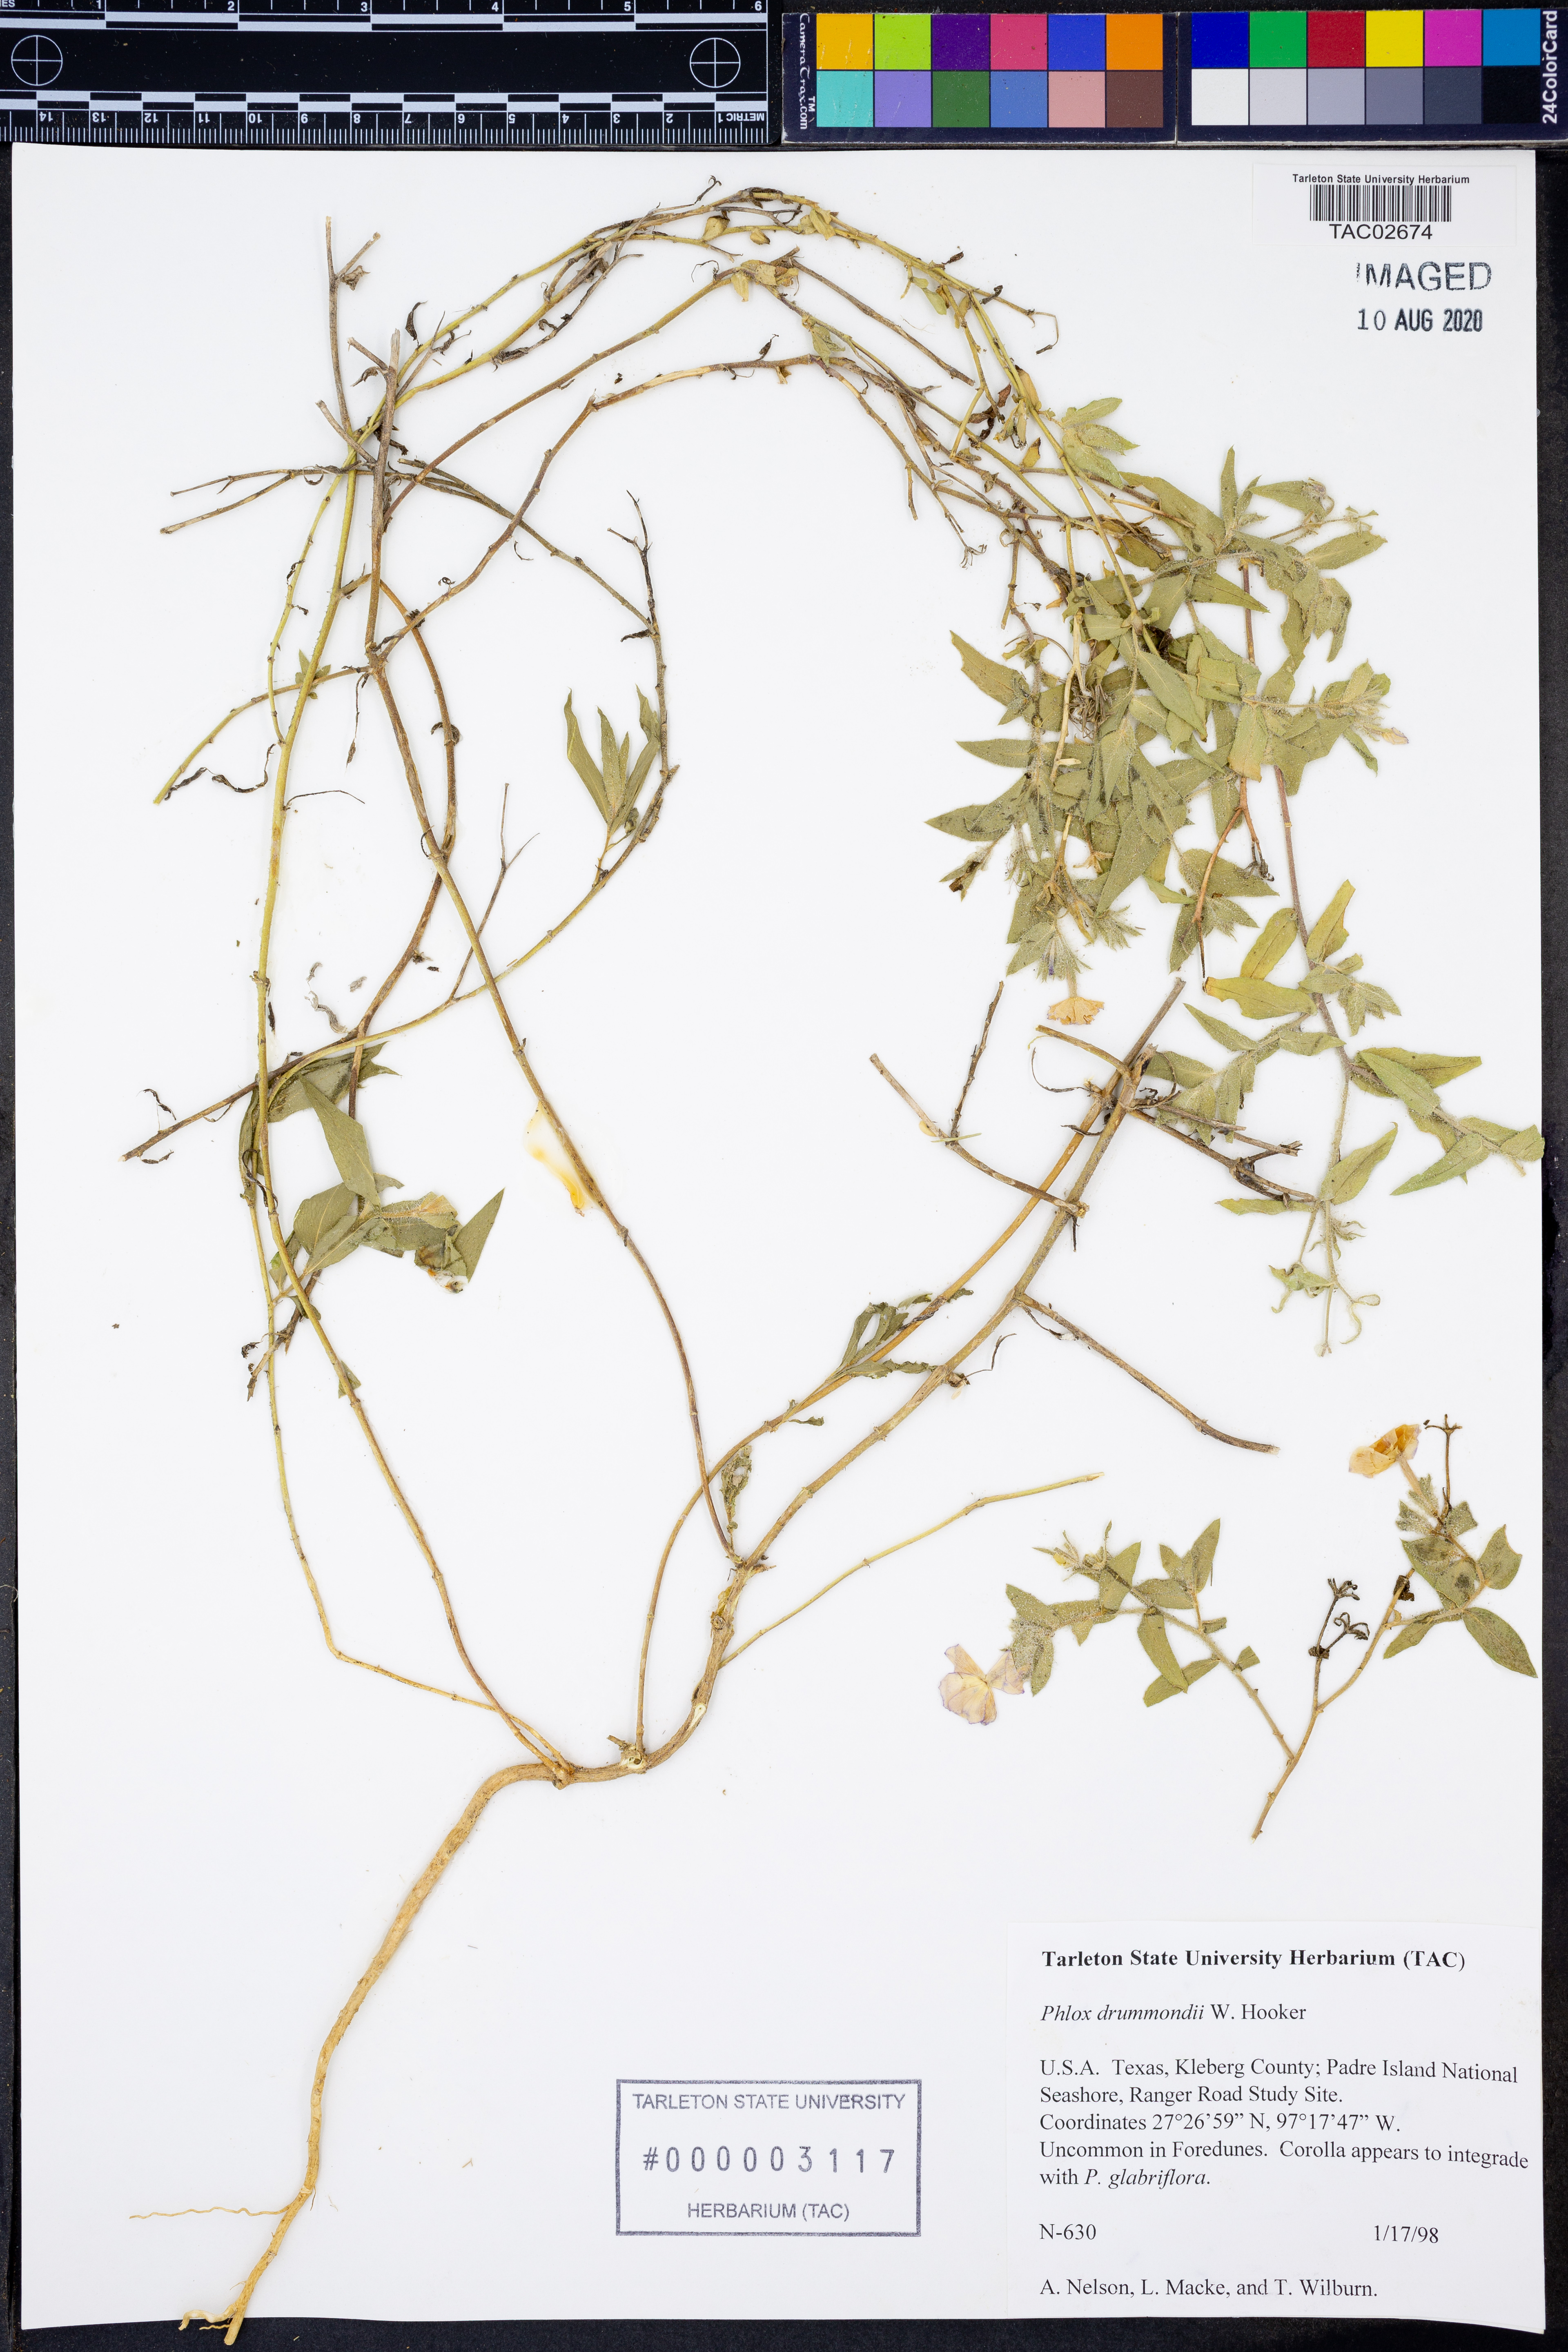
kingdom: Plantae
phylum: Tracheophyta
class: Magnoliopsida
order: Ericales
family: Polemoniaceae
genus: Phlox
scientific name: Phlox drummondii
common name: Drummond's phlox
